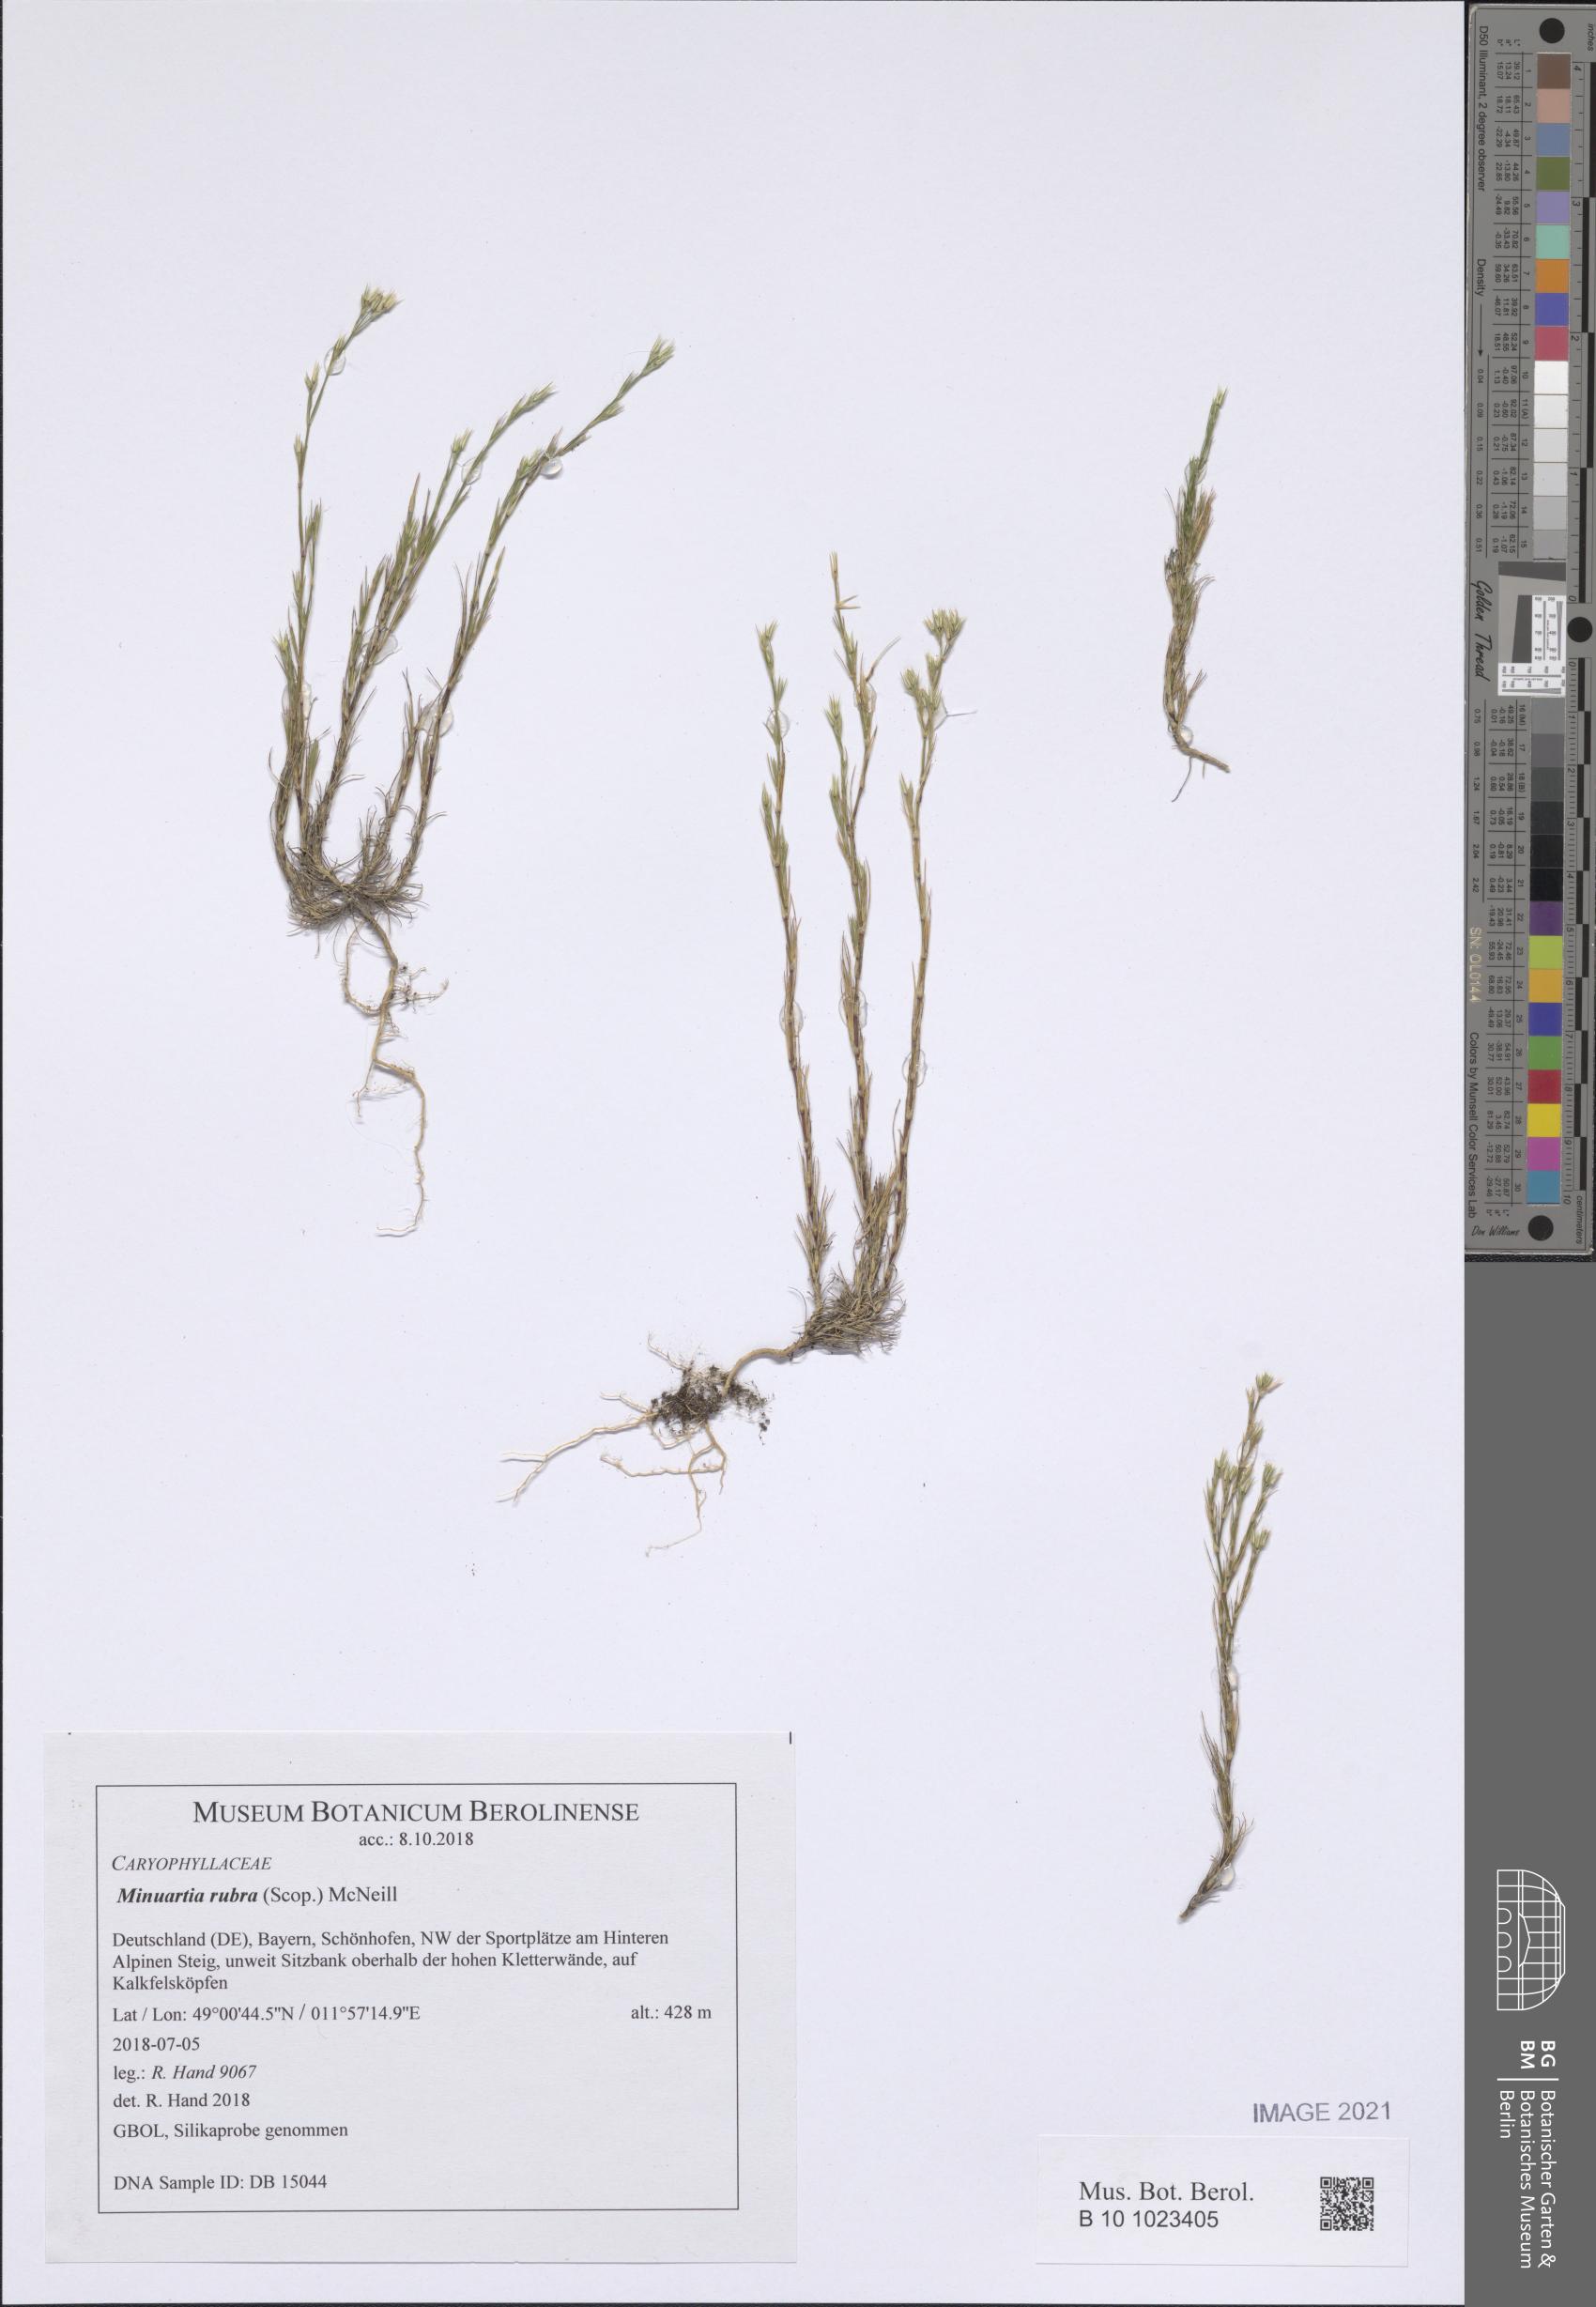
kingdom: Plantae
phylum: Tracheophyta
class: Magnoliopsida
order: Caryophyllales
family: Caryophyllaceae
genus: Minuartia
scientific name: Minuartia mucronata
